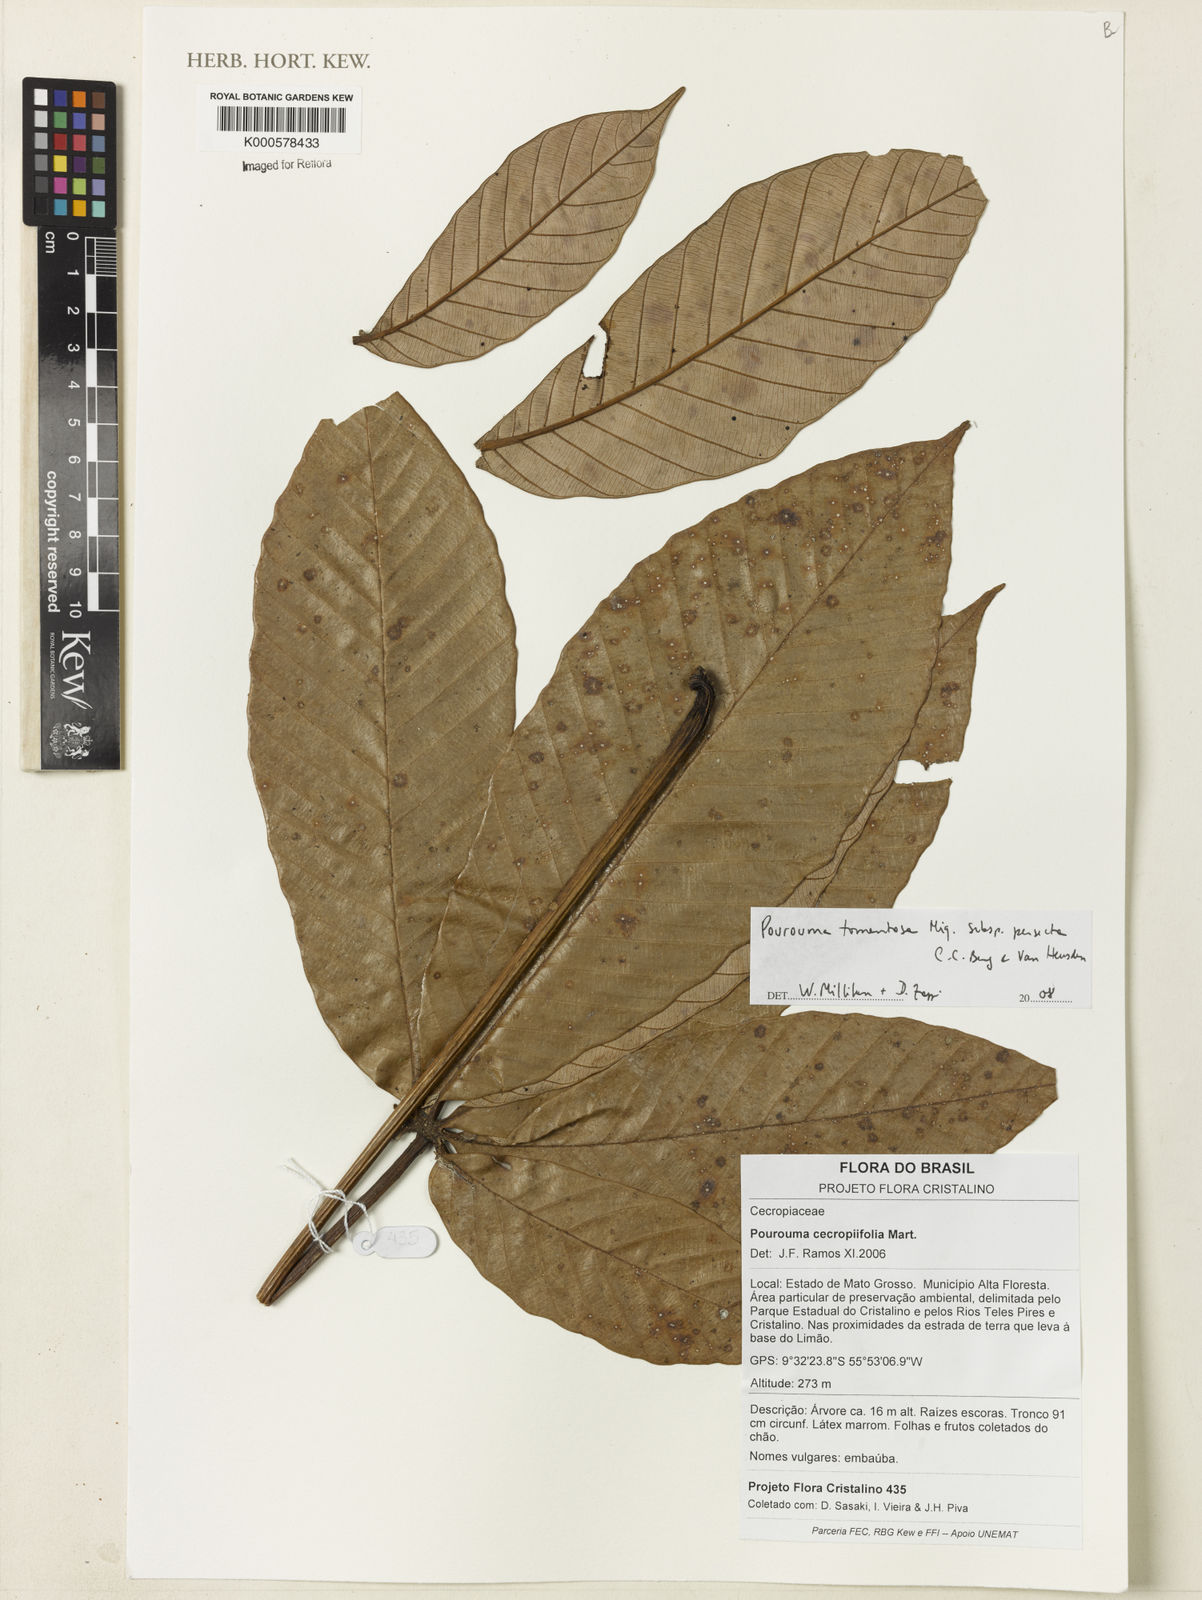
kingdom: Plantae
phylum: Tracheophyta
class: Magnoliopsida
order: Rosales
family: Urticaceae
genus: Pourouma
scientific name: Pourouma tomentosa
